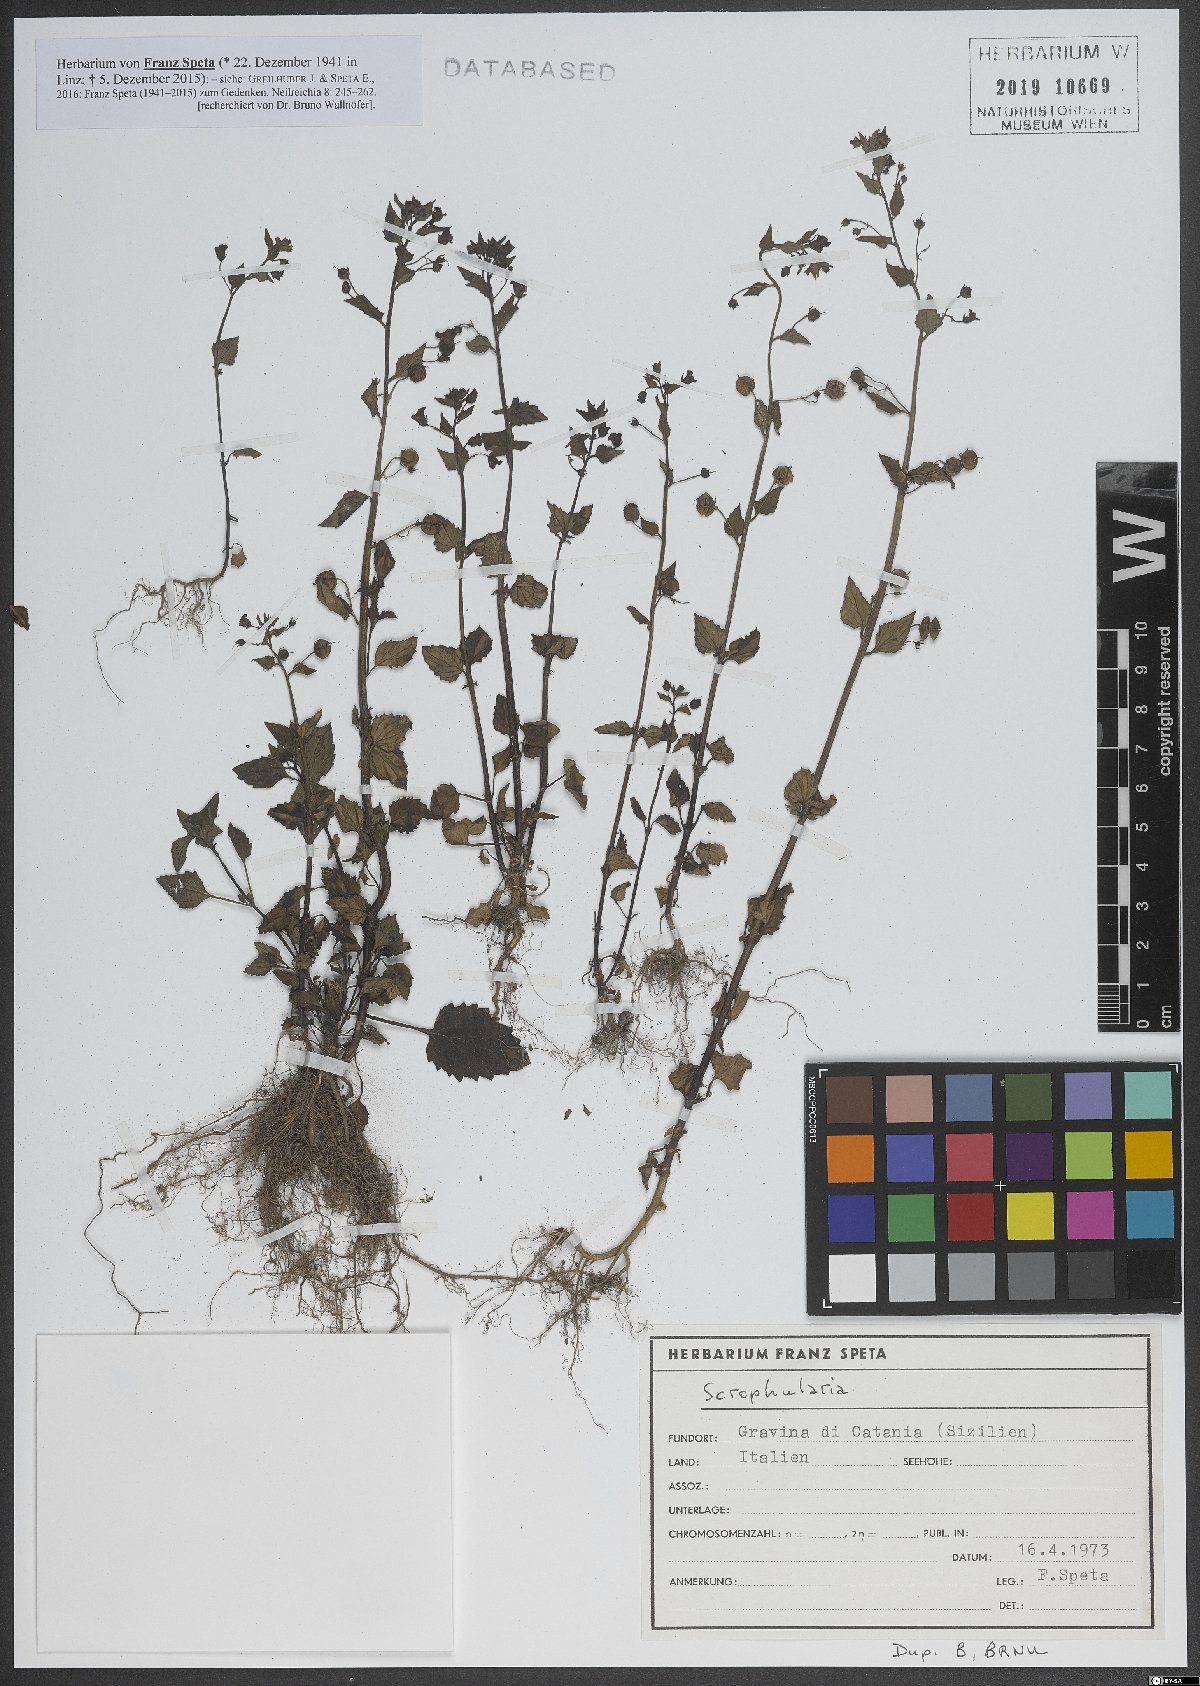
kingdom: Plantae
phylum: Tracheophyta
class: Magnoliopsida
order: Lamiales
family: Scrophulariaceae
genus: Scrophularia
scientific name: Scrophularia
